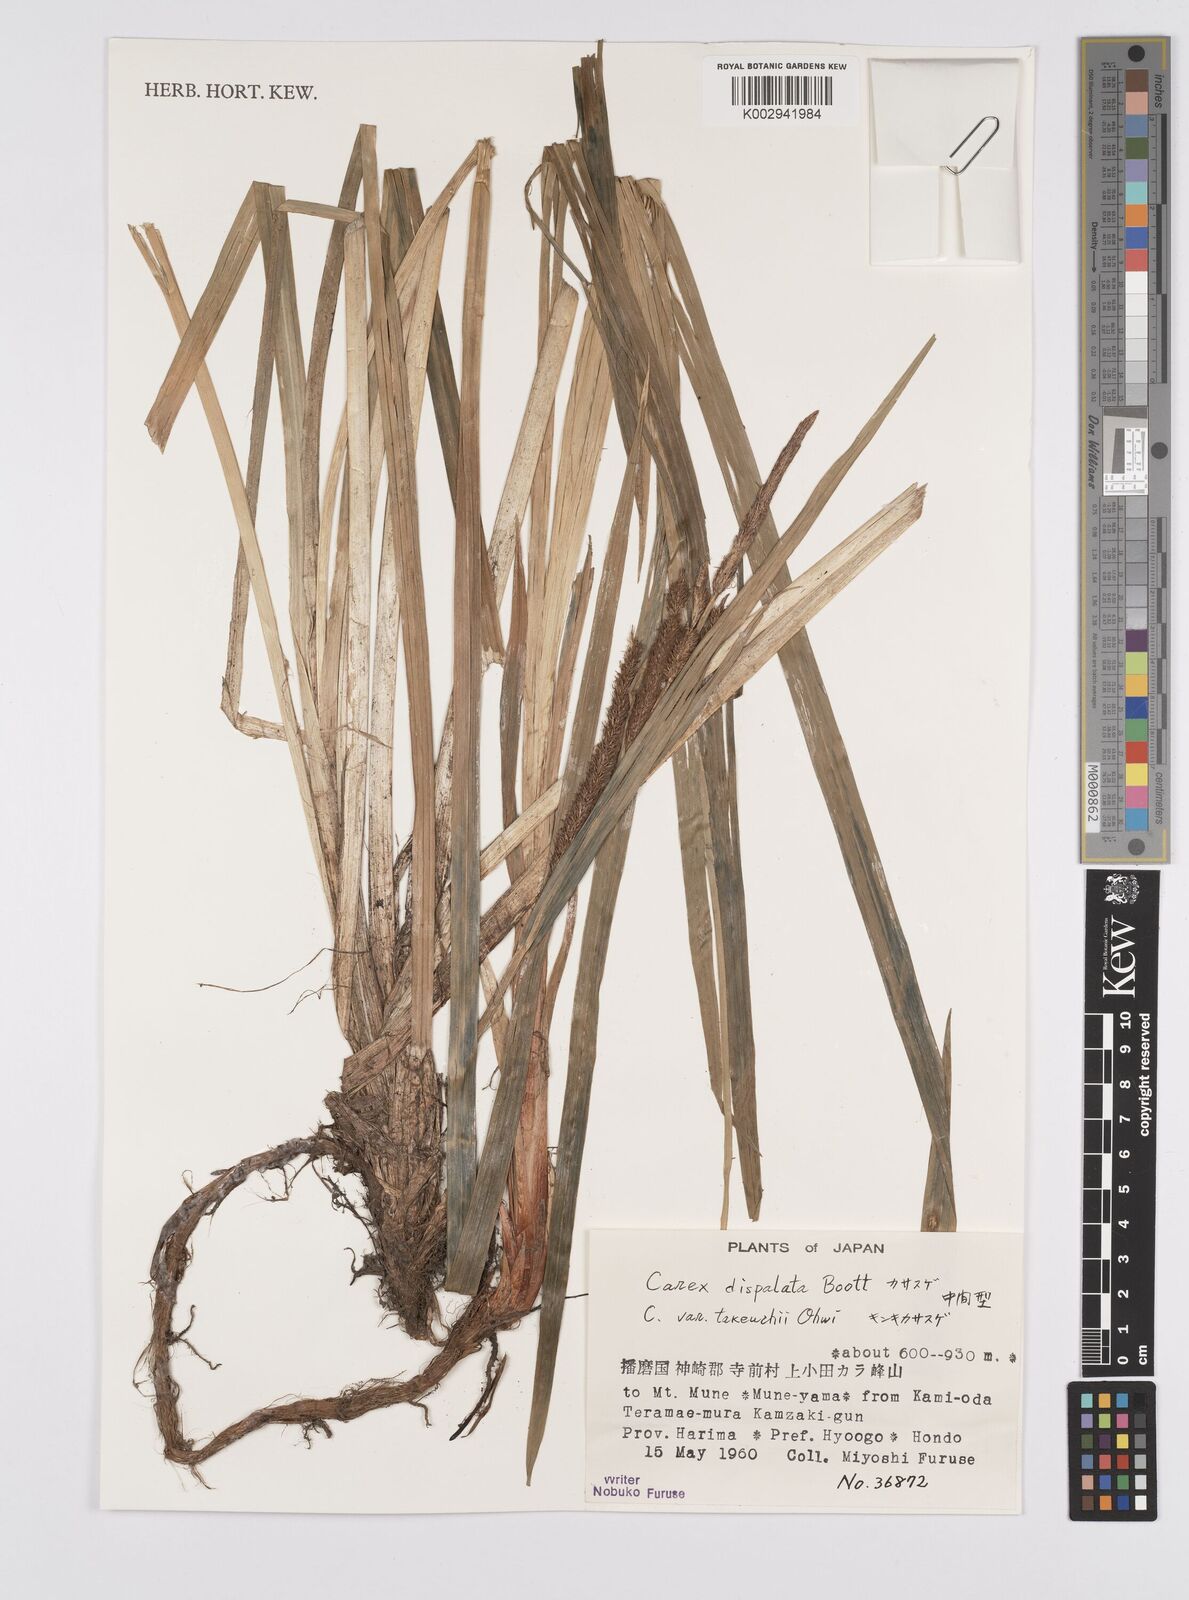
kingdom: Plantae
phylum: Tracheophyta
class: Liliopsida
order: Poales
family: Cyperaceae
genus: Carex
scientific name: Carex dispalata
